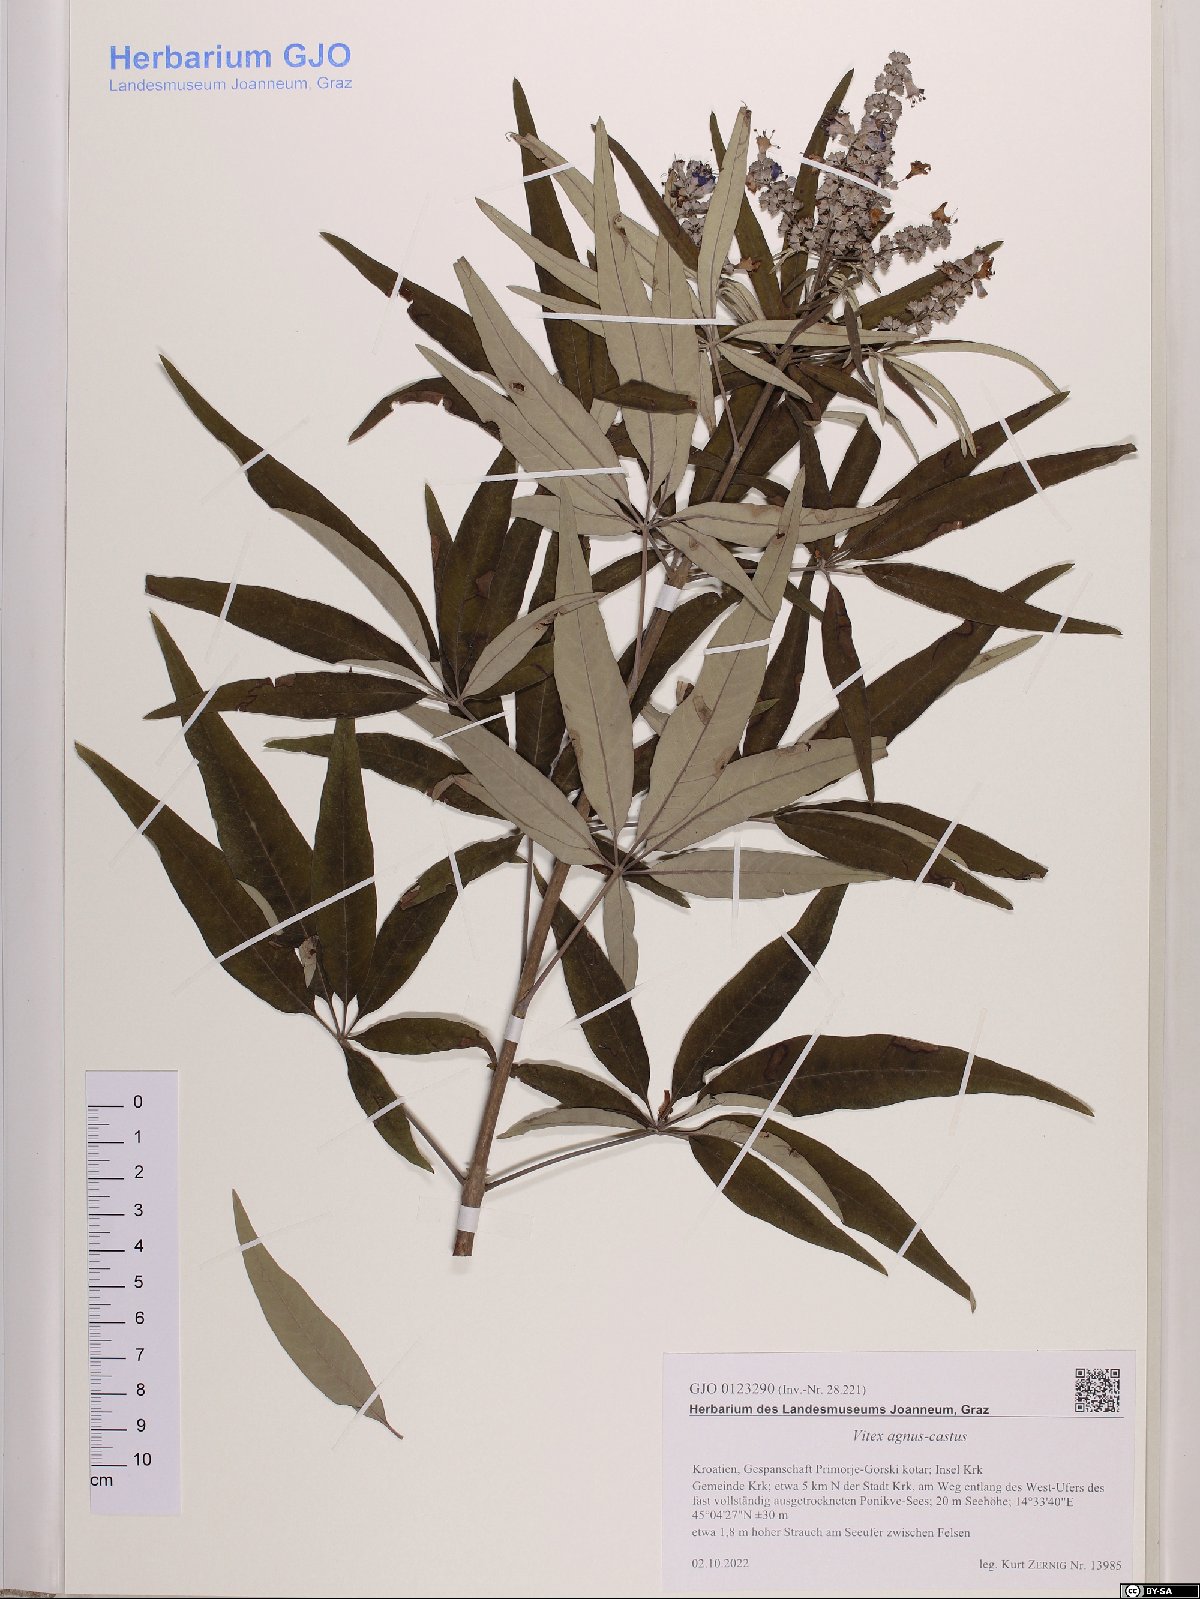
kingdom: Plantae
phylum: Tracheophyta
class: Magnoliopsida
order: Lamiales
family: Lamiaceae
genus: Vitex
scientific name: Vitex agnus-castus
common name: Chasteberry
